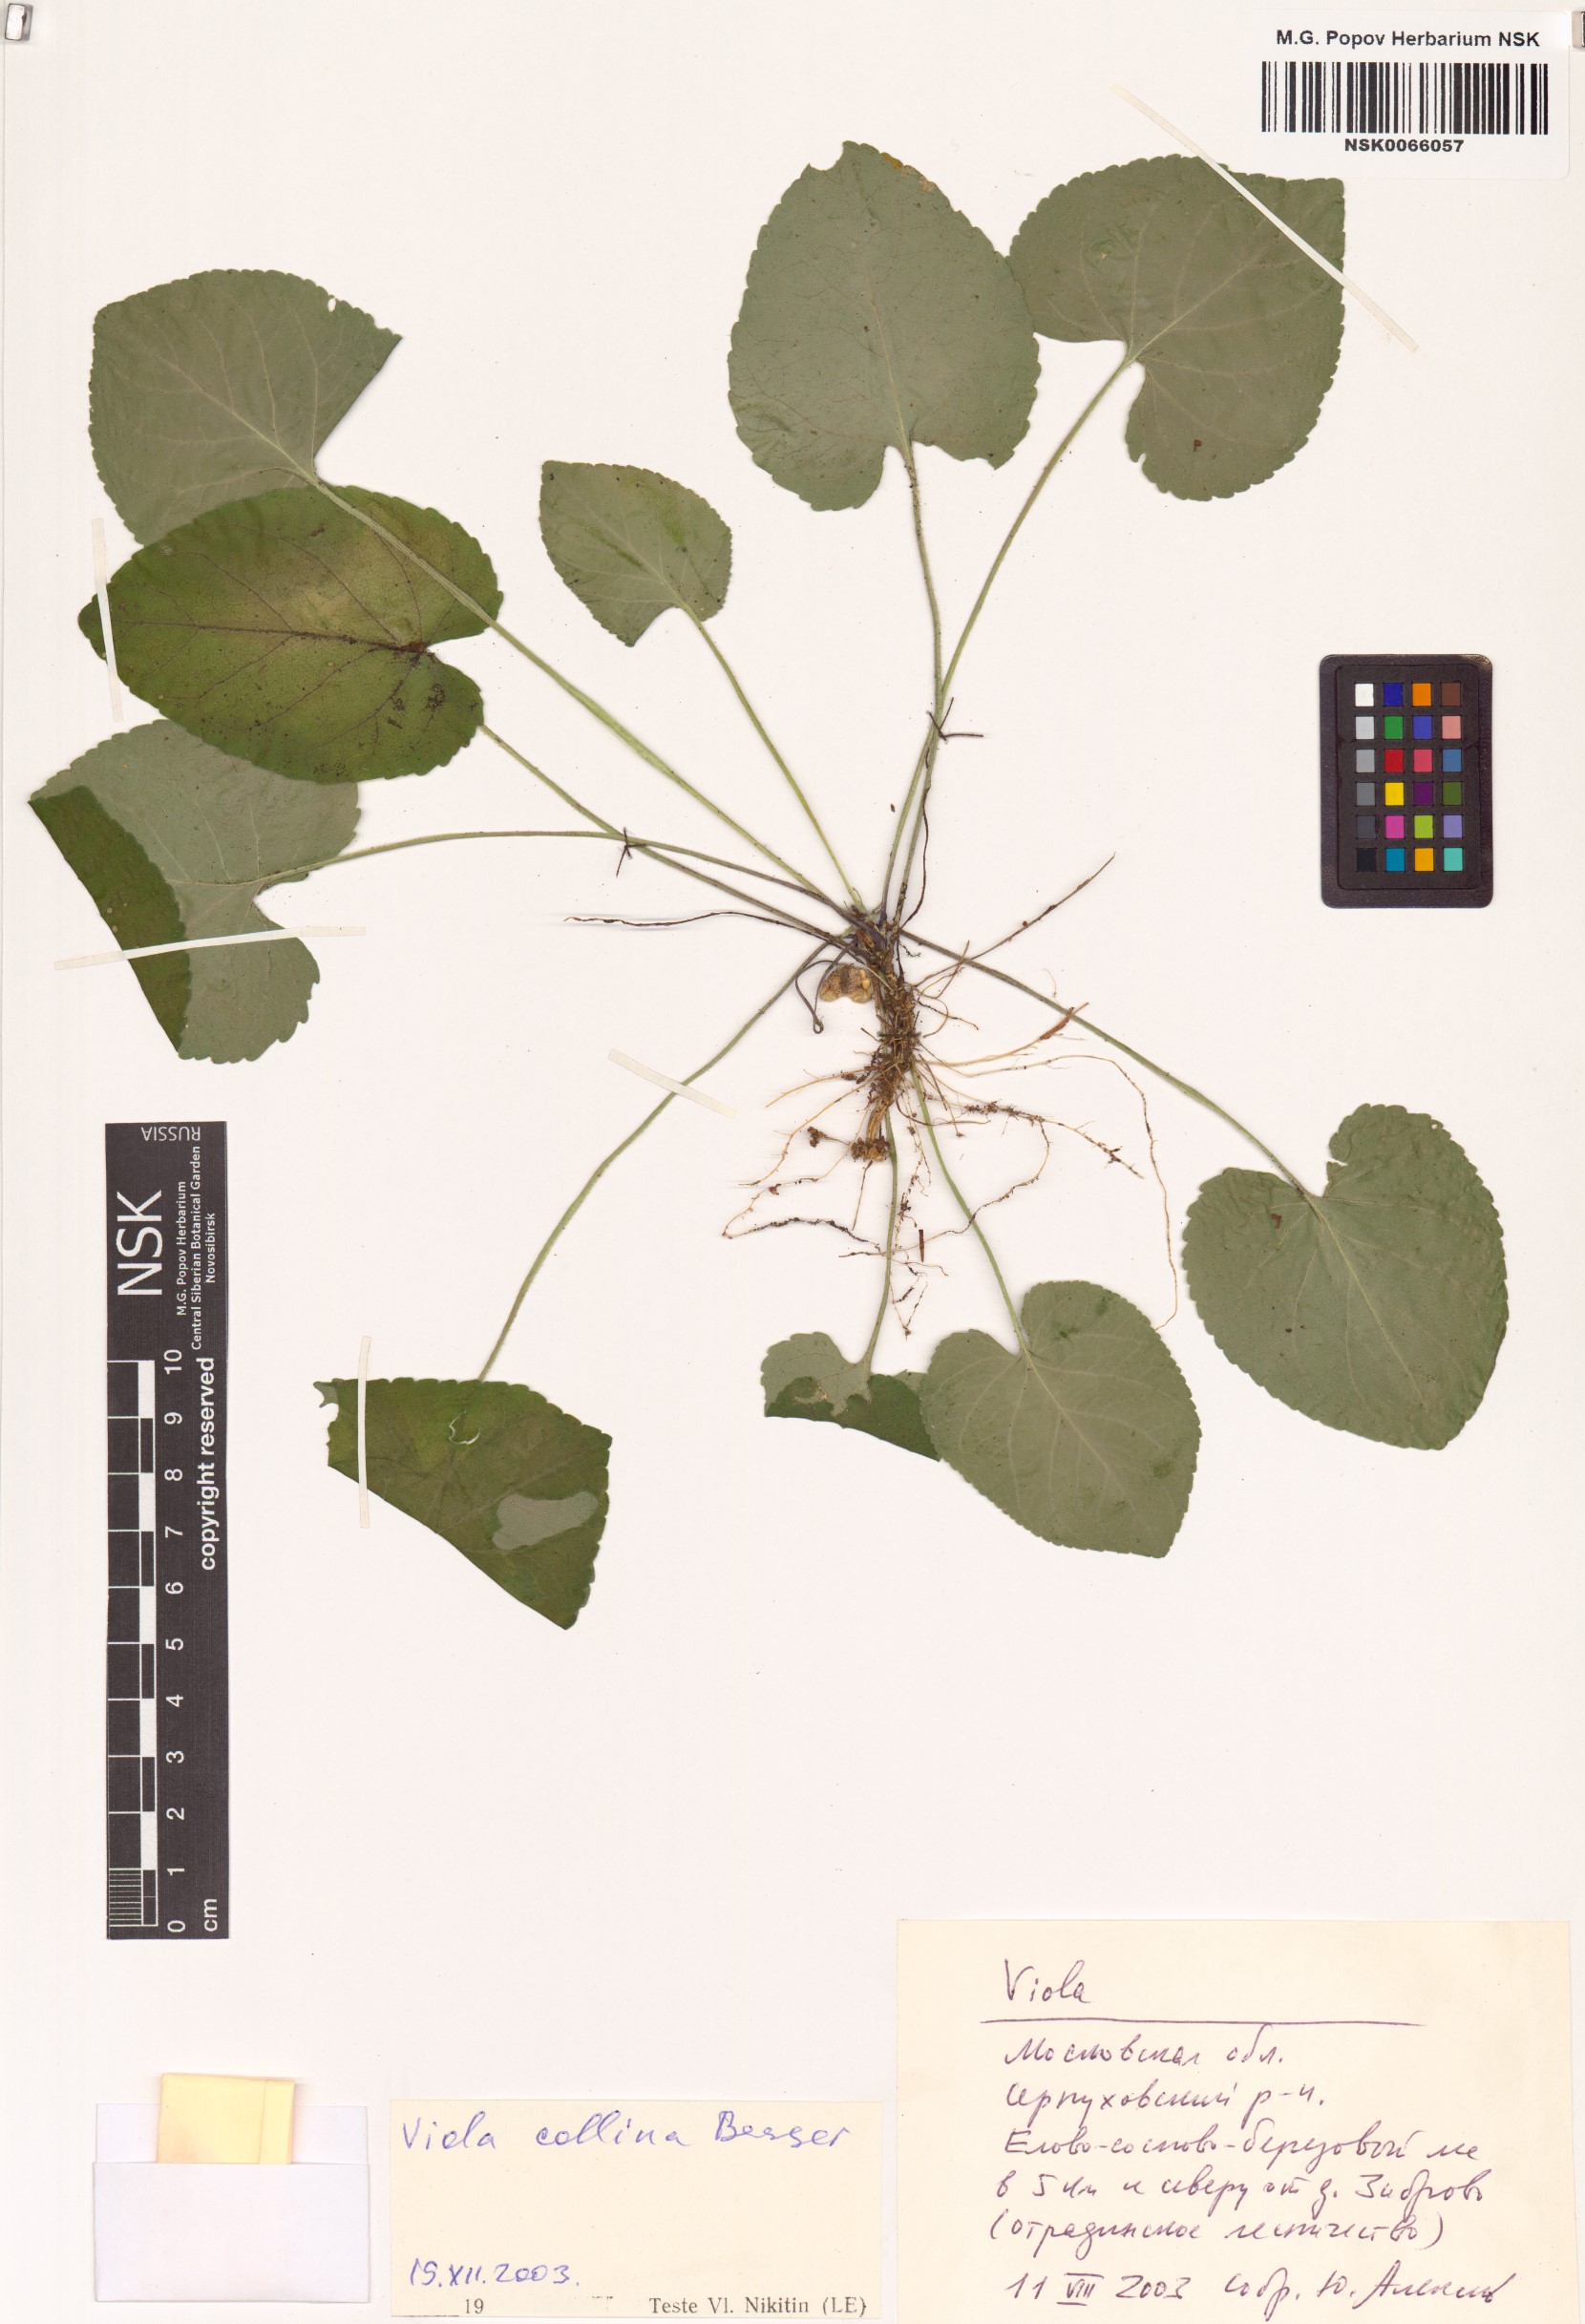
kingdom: Plantae
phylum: Tracheophyta
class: Magnoliopsida
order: Malpighiales
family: Violaceae
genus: Viola
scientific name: Viola collina
